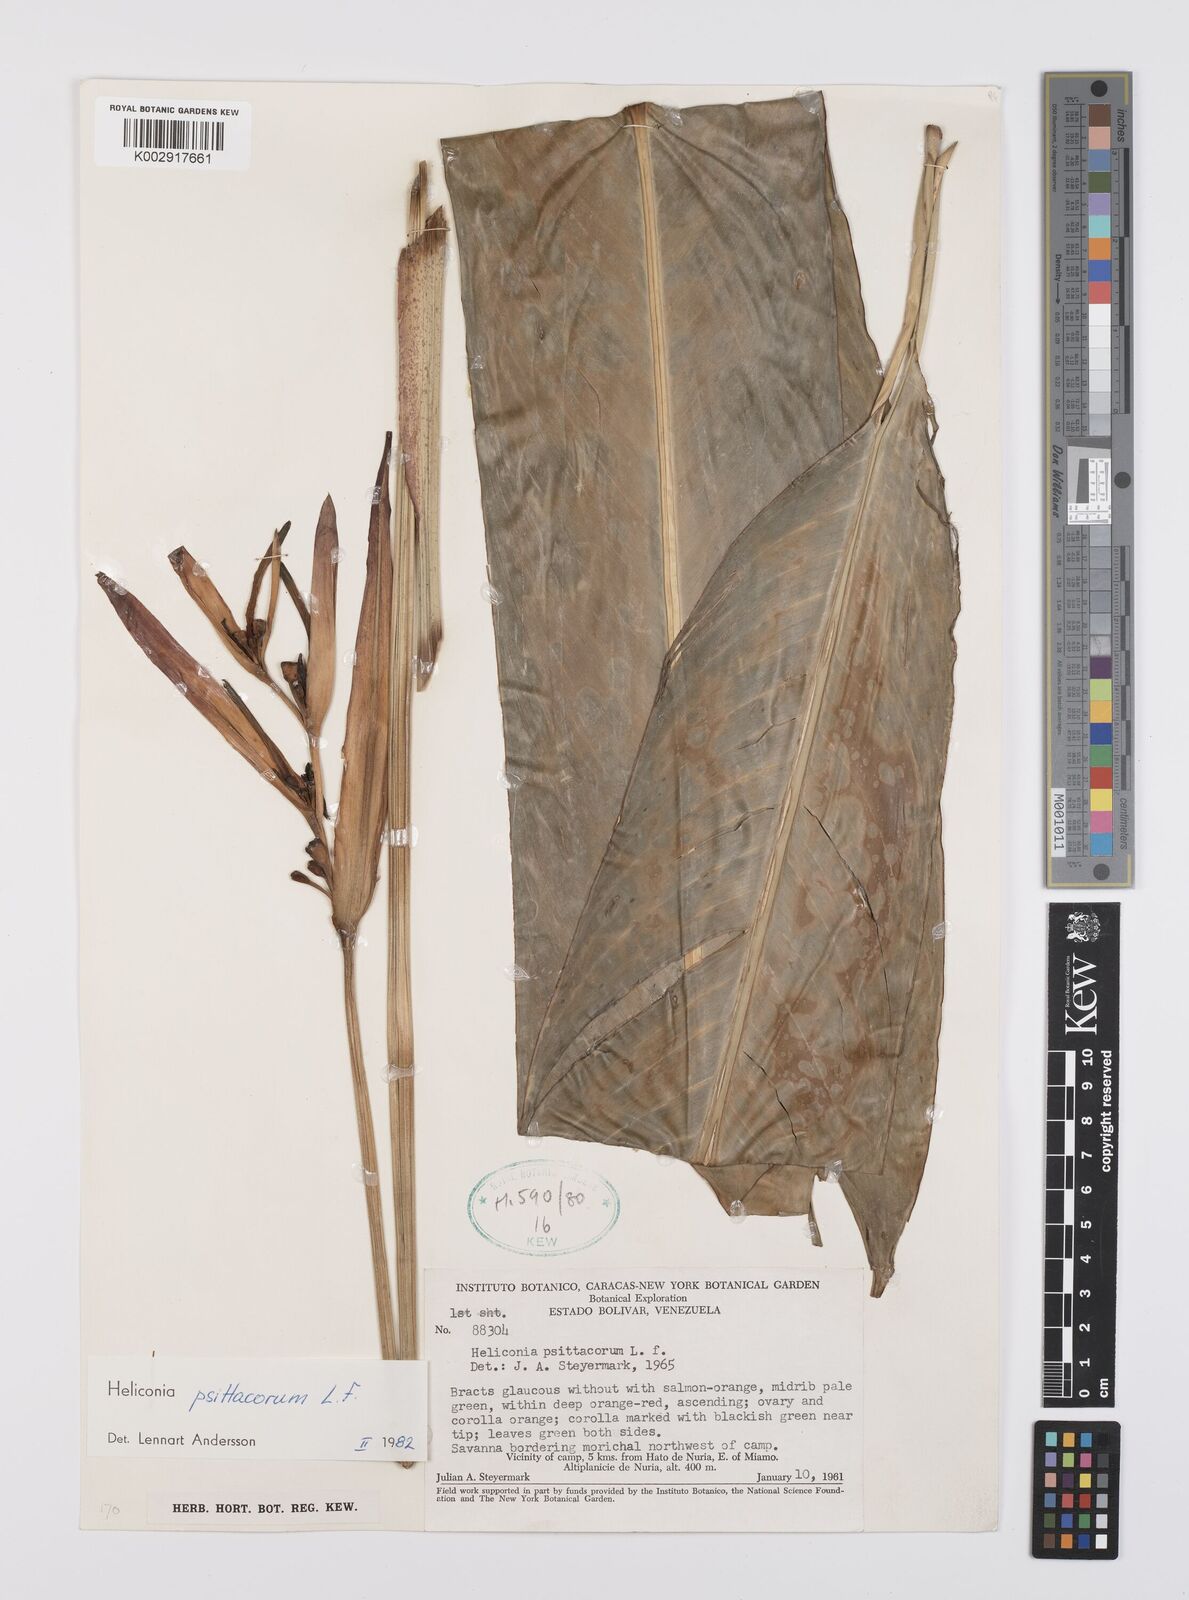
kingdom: Plantae
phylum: Tracheophyta
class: Liliopsida
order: Zingiberales
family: Heliconiaceae
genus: Heliconia
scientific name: Heliconia psittacorum
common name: Parrot's-flower
